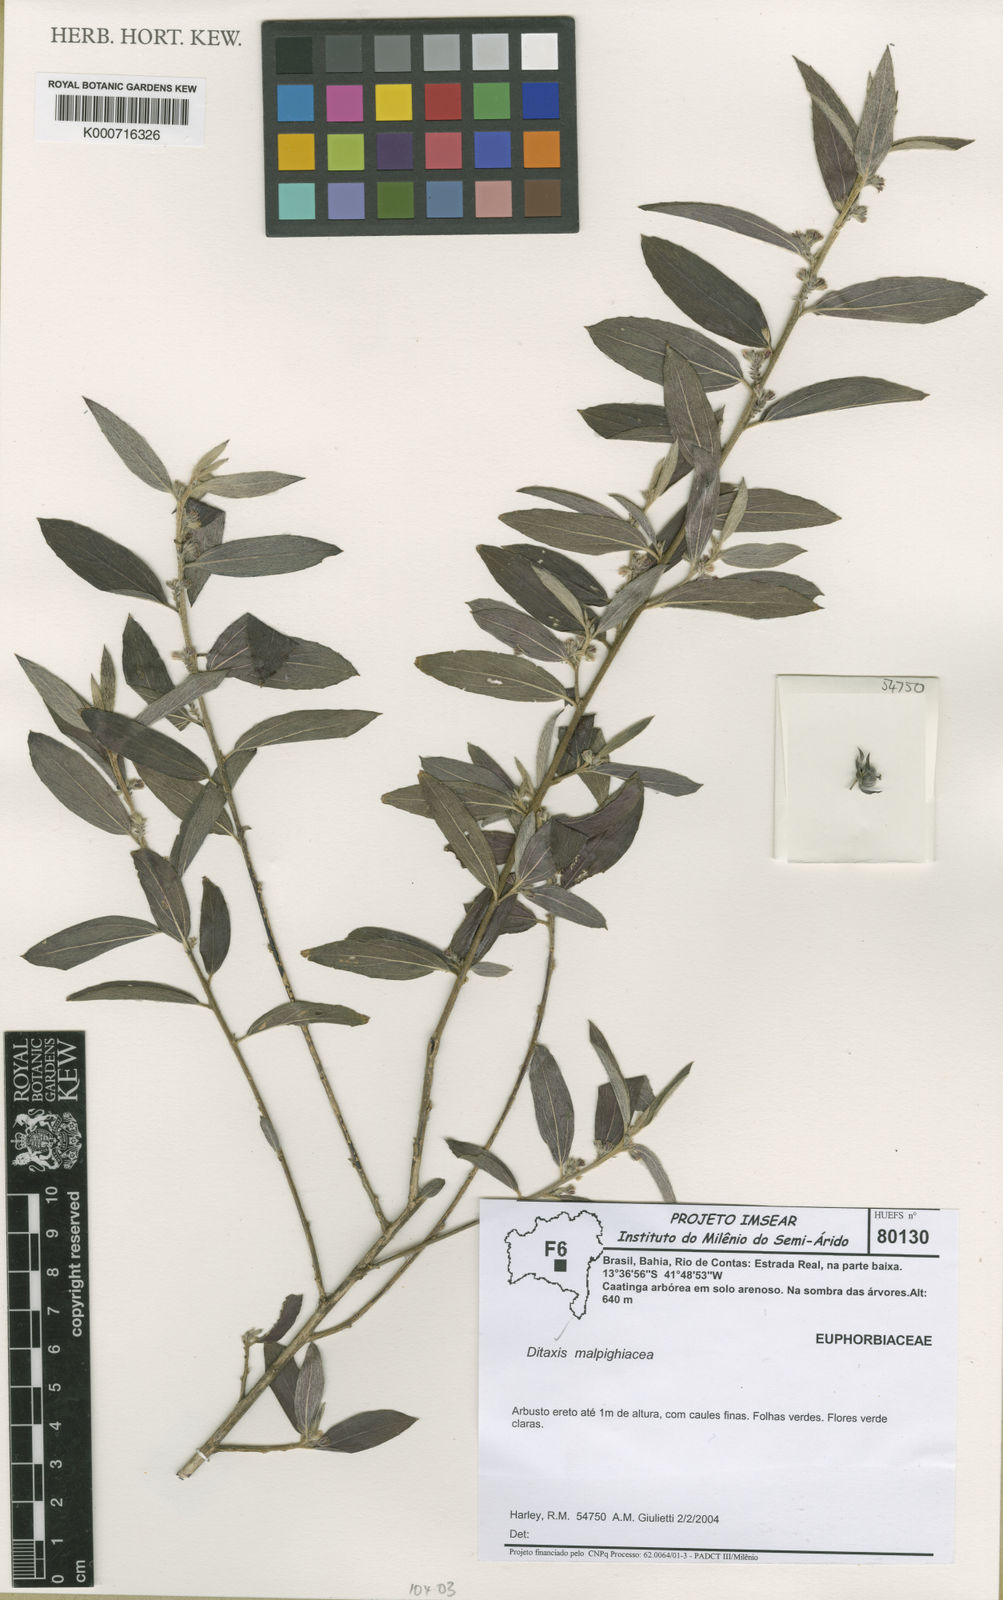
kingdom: Plantae
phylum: Tracheophyta
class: Magnoliopsida
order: Malpighiales
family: Euphorbiaceae
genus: Ditaxis
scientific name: Ditaxis malpighiacea
